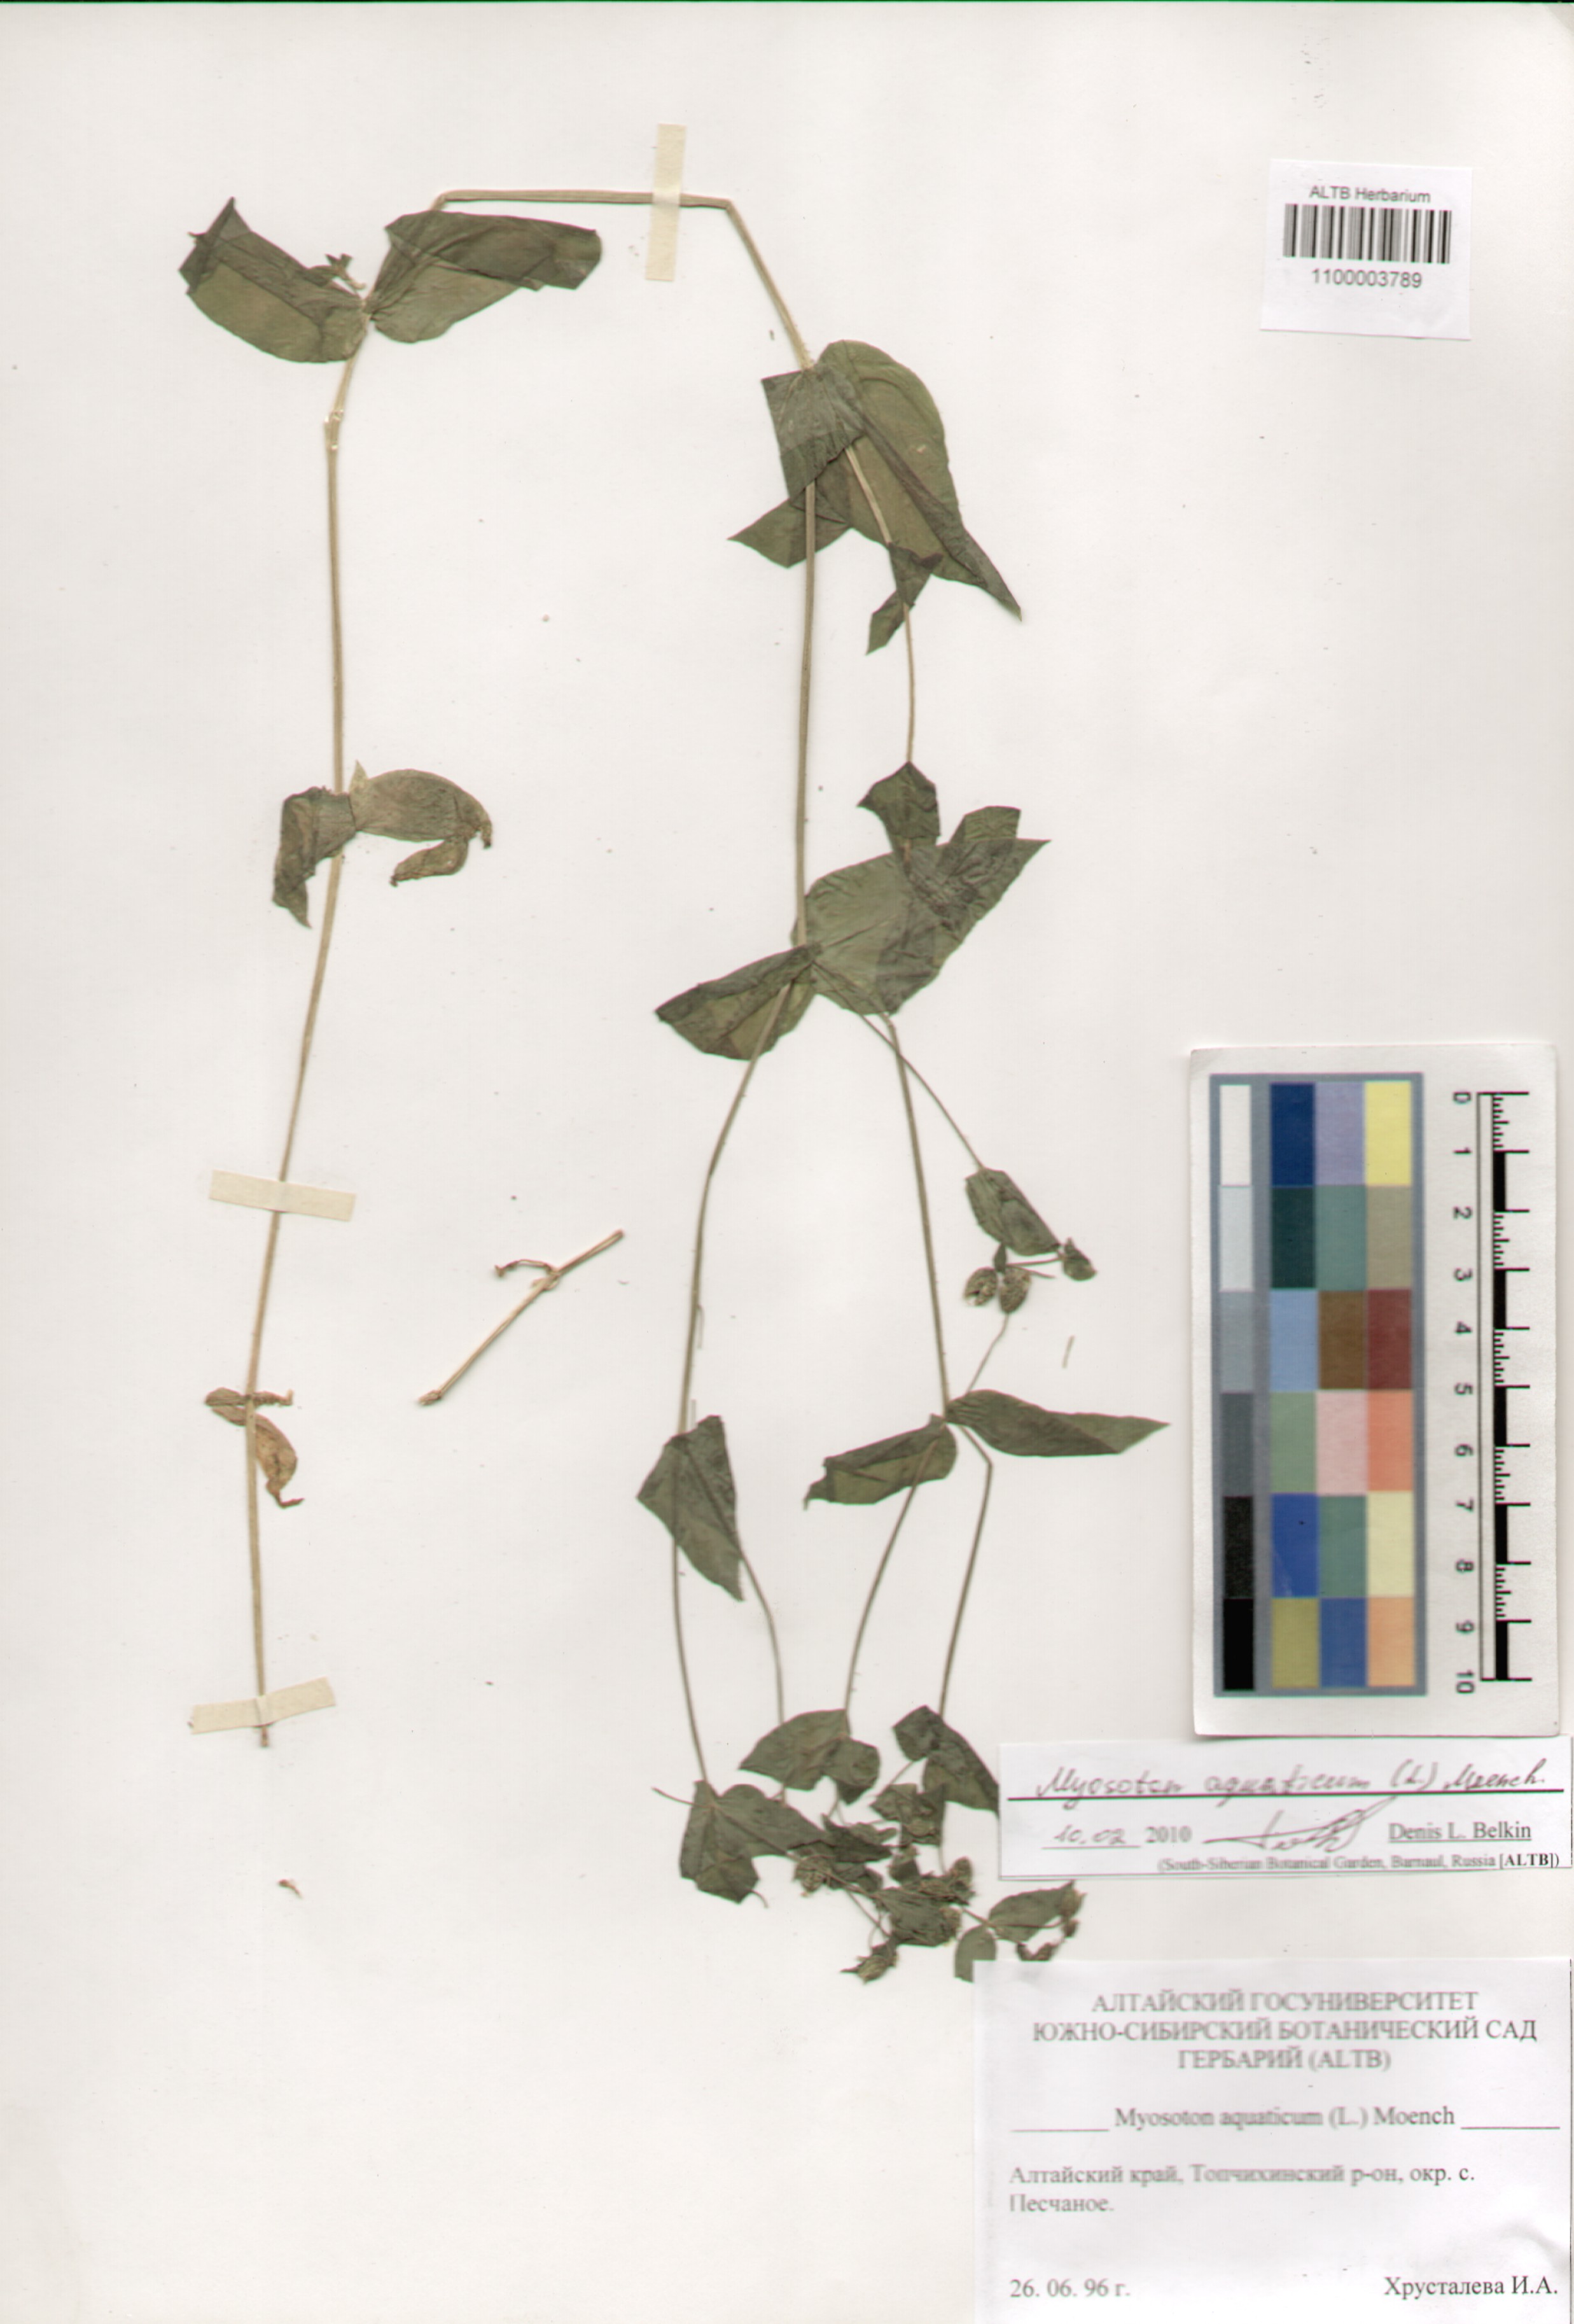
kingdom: Plantae
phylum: Tracheophyta
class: Magnoliopsida
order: Caryophyllales
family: Caryophyllaceae
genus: Stellaria
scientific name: Stellaria aquatica
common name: Water chickweed
